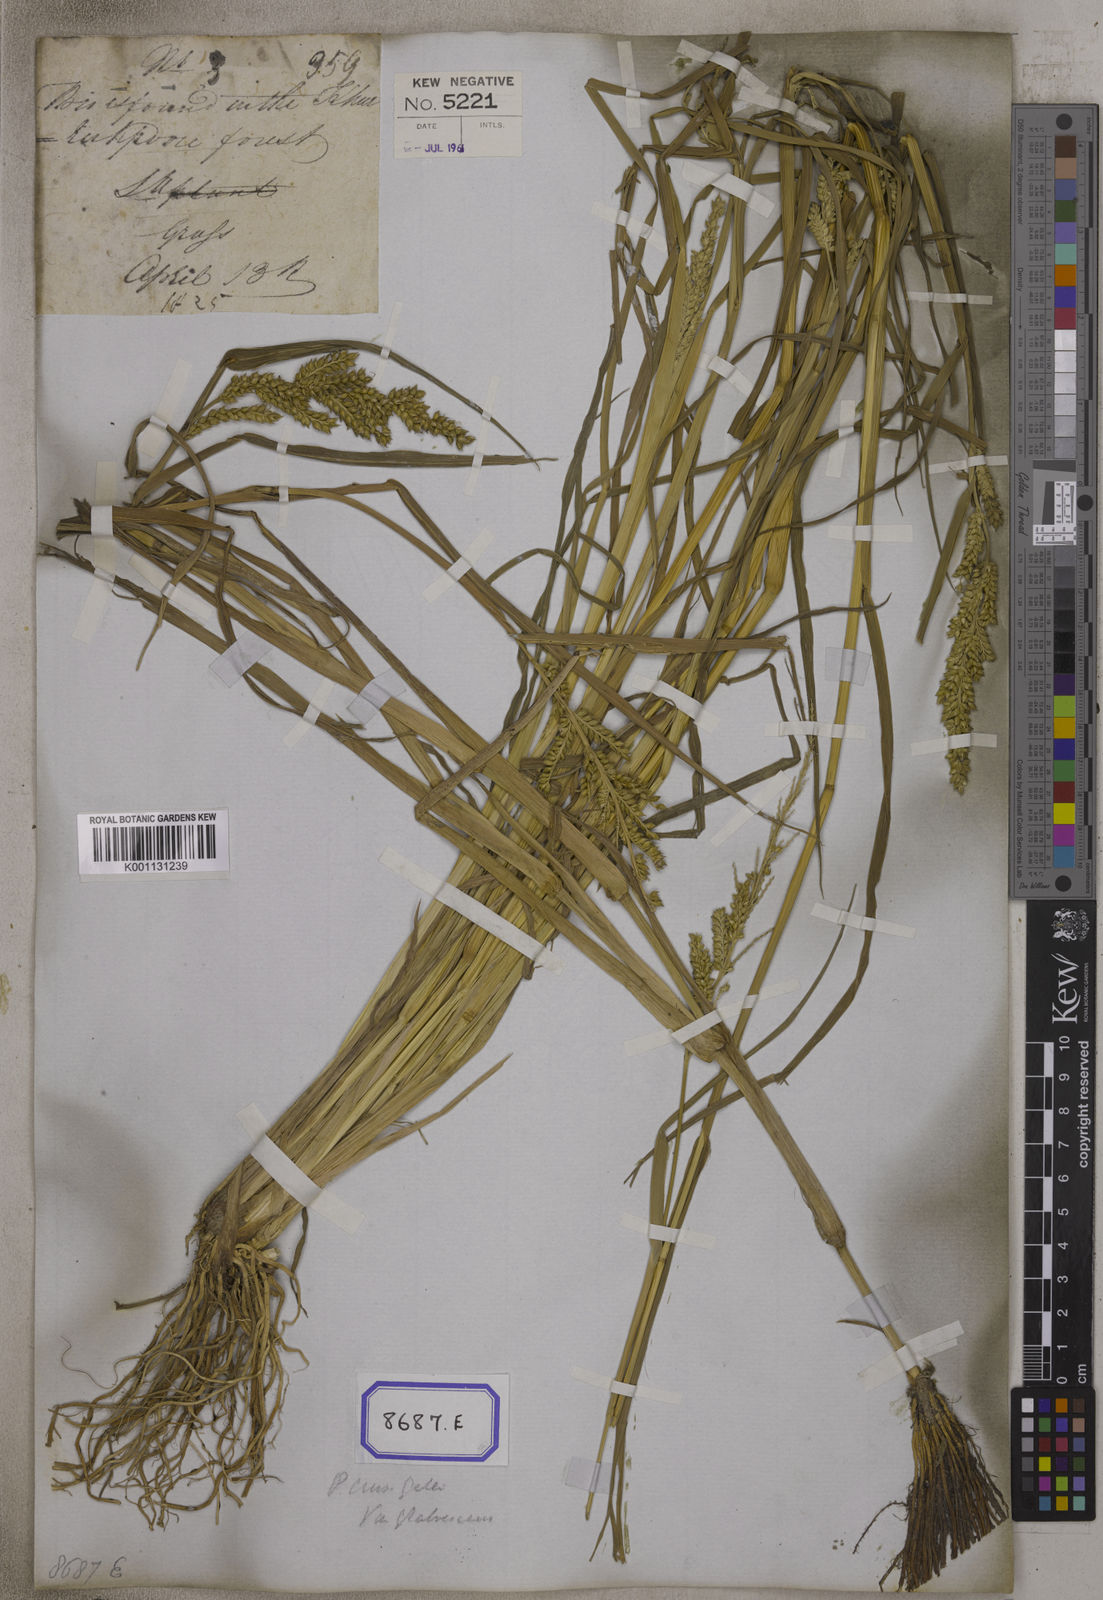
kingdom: Plantae
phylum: Tracheophyta
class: Liliopsida
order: Poales
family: Poaceae
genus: Echinochloa
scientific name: Echinochloa crus-galli
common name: Cockspur
